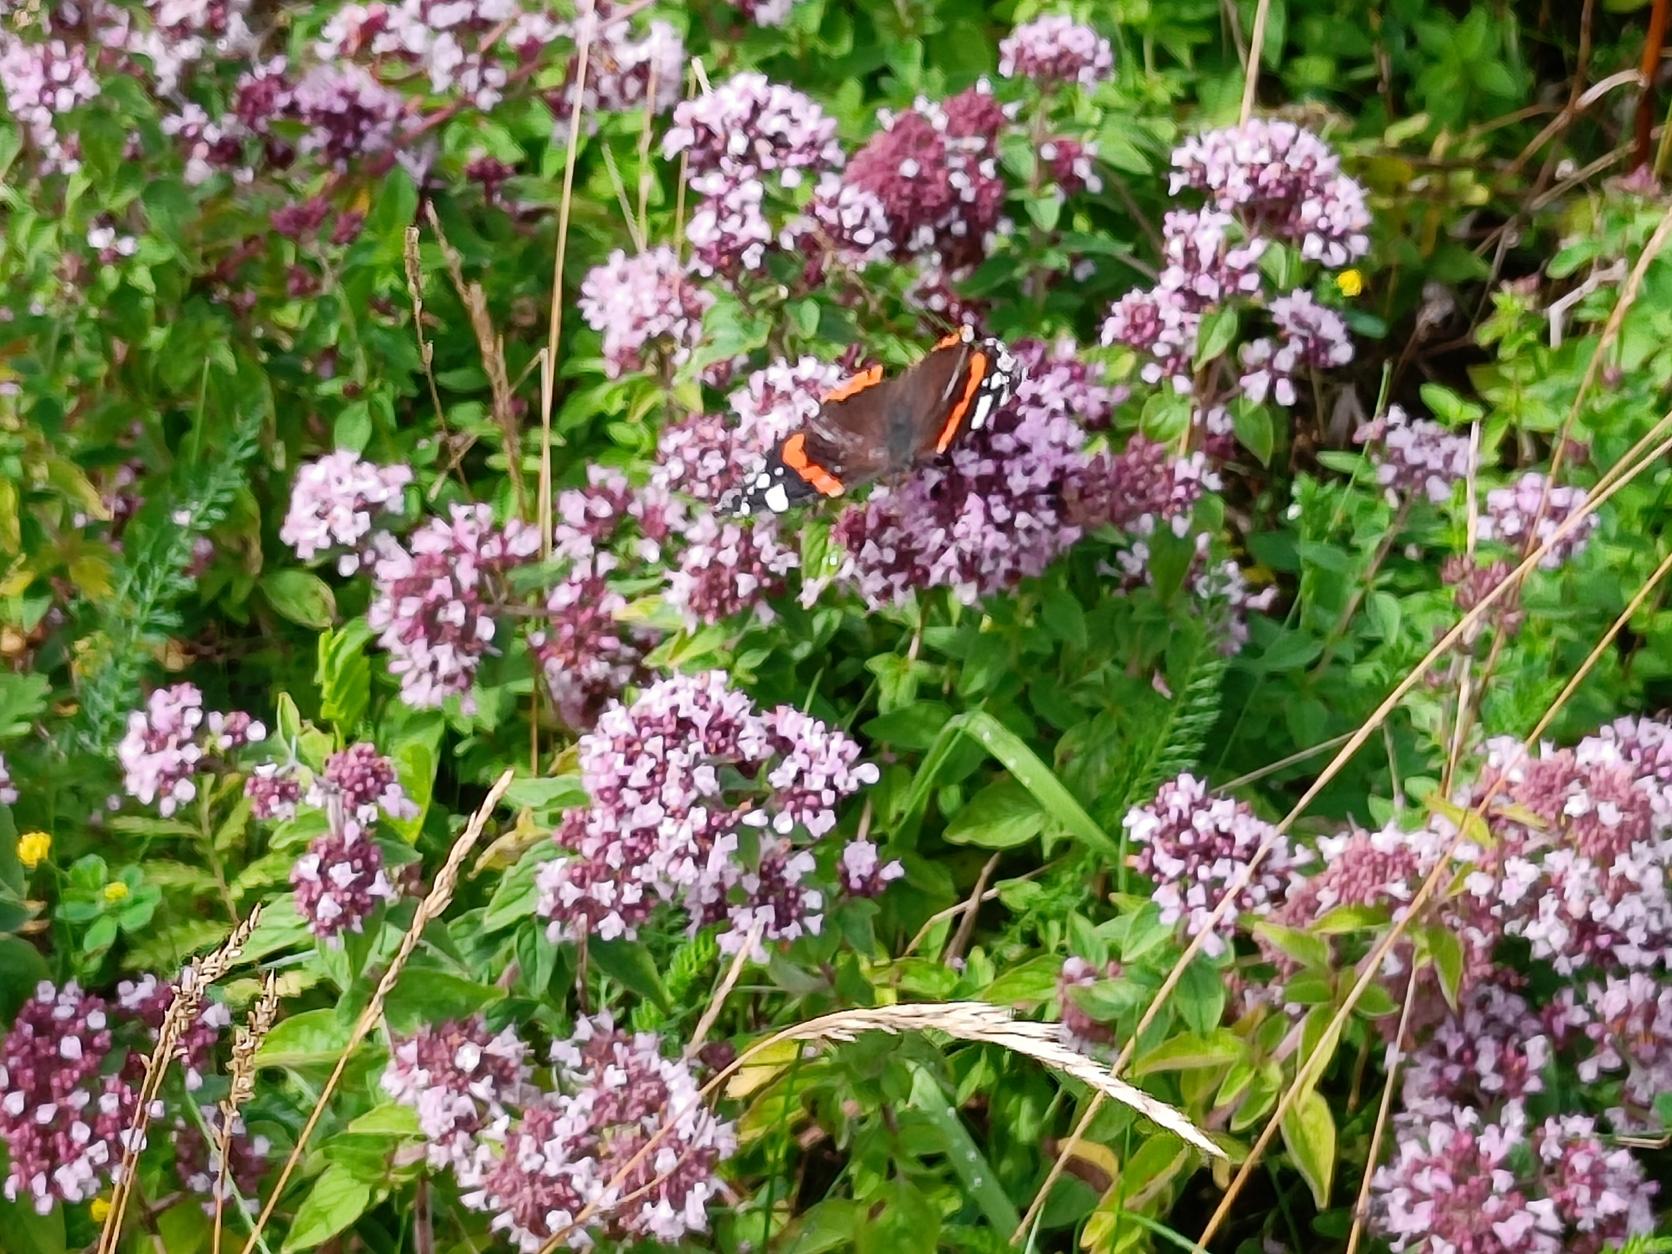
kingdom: Animalia
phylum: Arthropoda
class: Insecta
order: Lepidoptera
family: Nymphalidae
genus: Vanessa
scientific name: Vanessa atalanta
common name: Admiral
